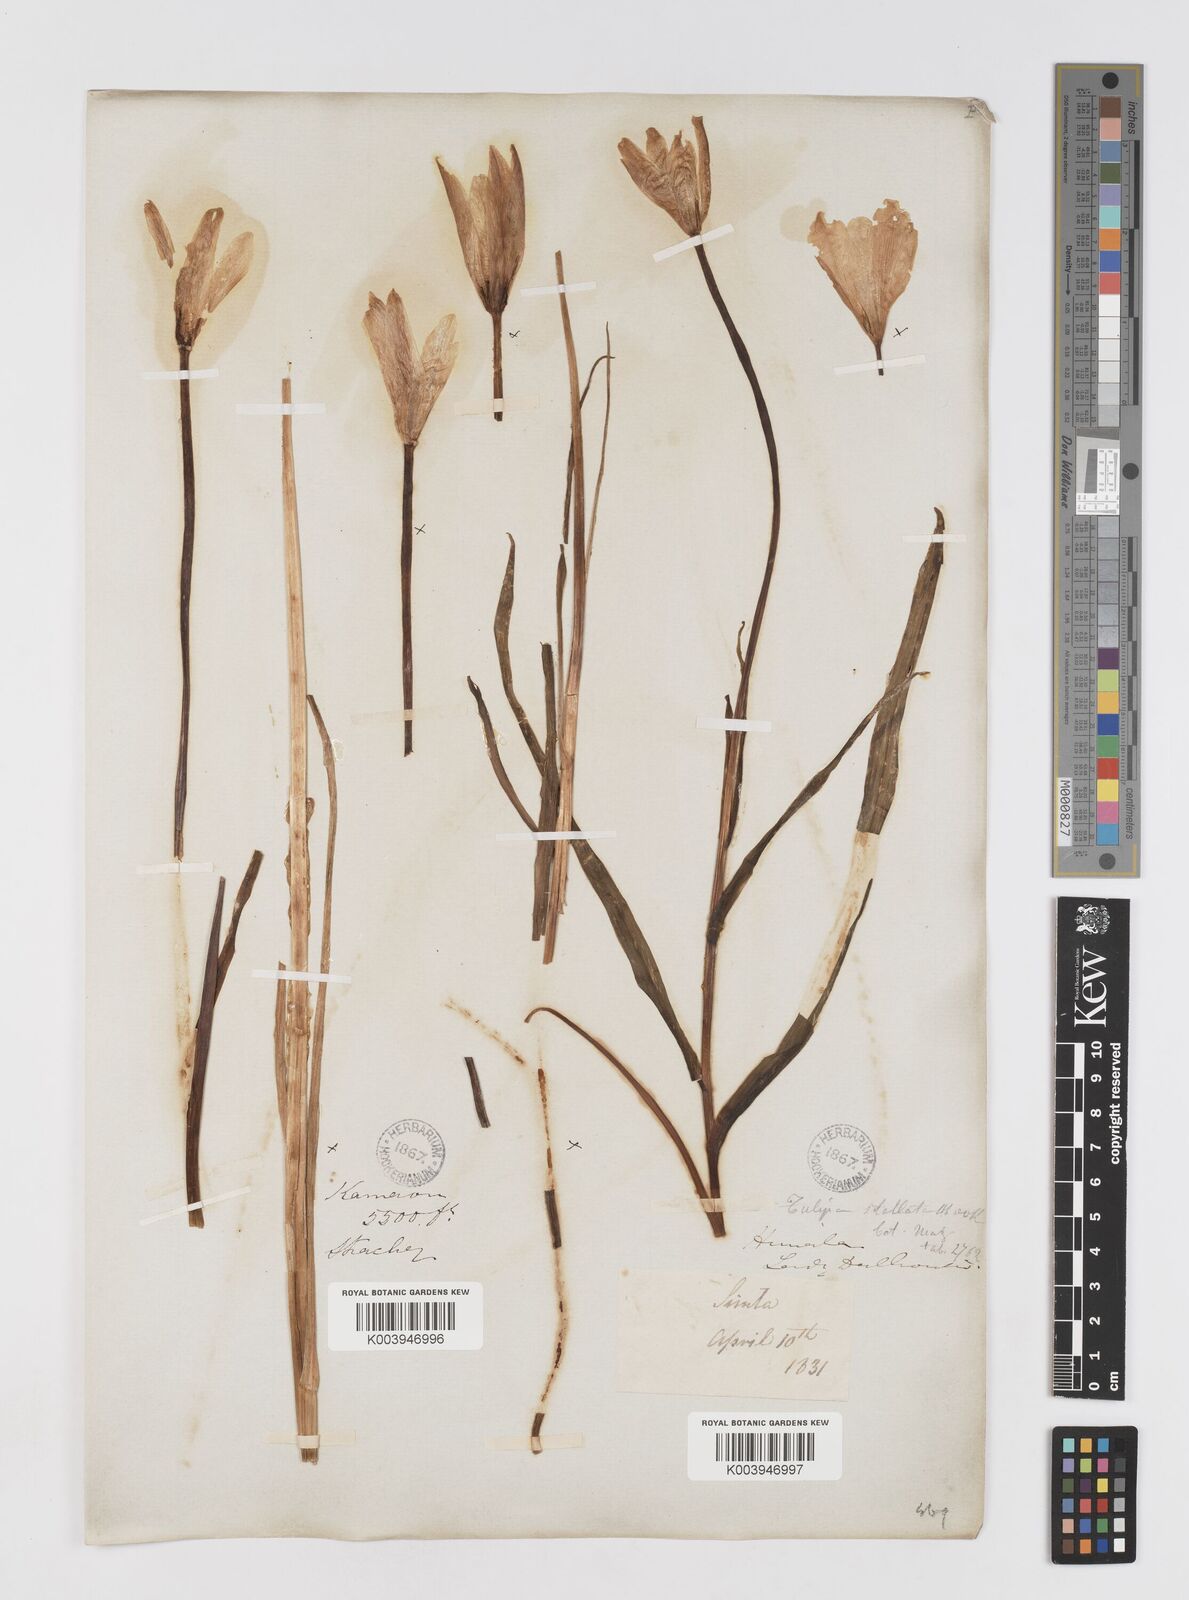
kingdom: Plantae
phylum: Tracheophyta
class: Liliopsida
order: Liliales
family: Liliaceae
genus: Tulipa
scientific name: Tulipa clusiana
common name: Lady tulip
